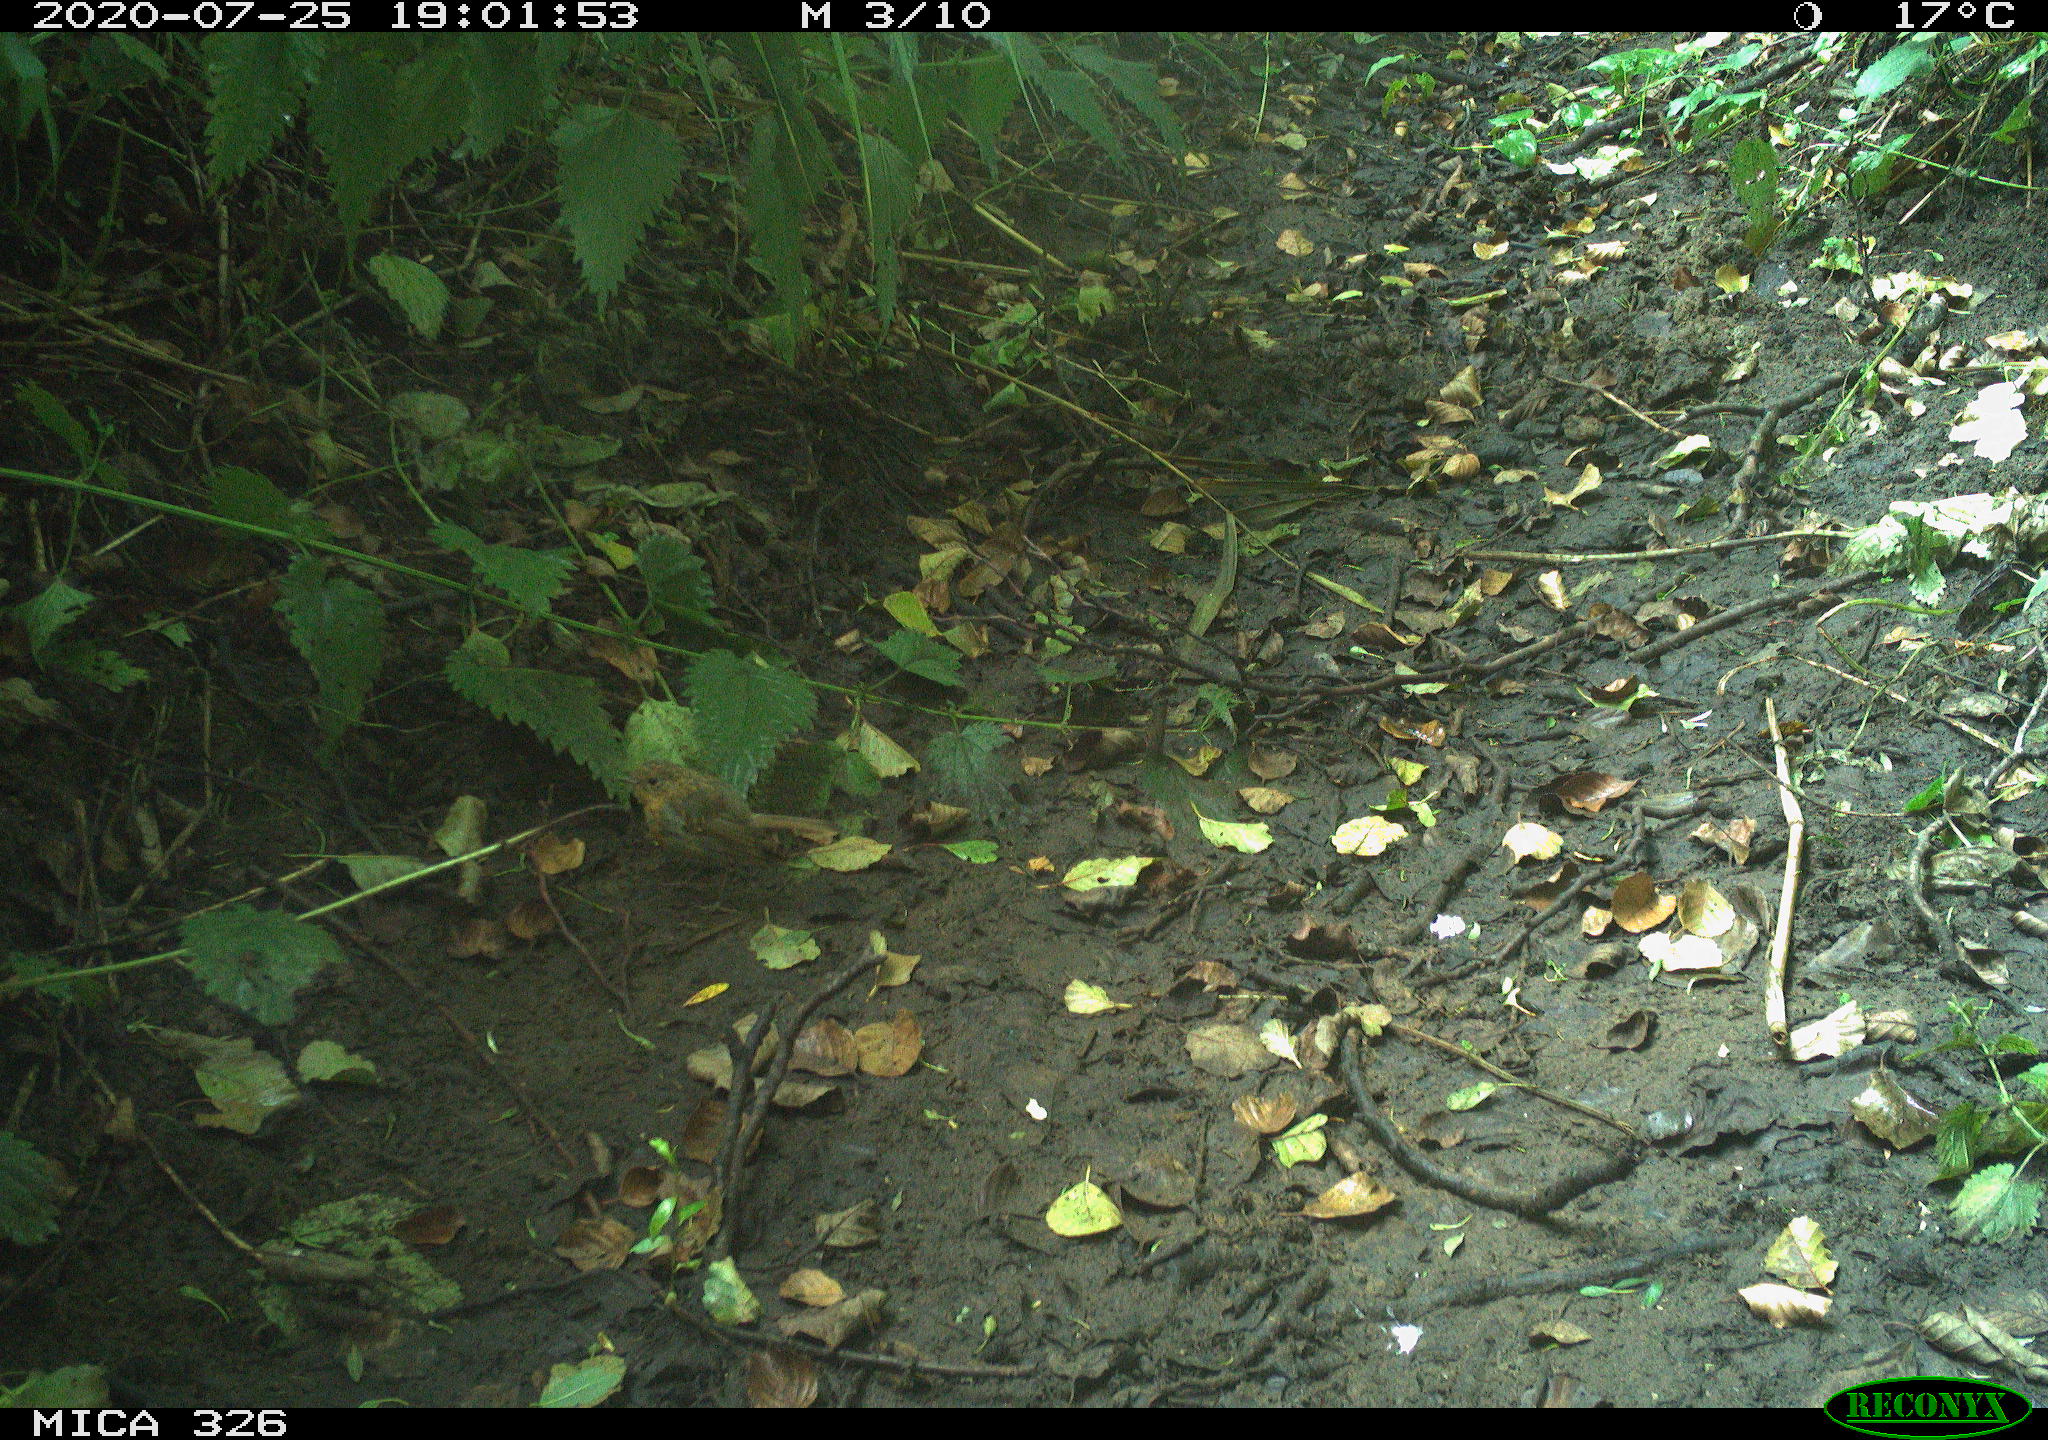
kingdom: Animalia
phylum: Chordata
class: Aves
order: Passeriformes
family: Muscicapidae
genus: Erithacus
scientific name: Erithacus rubecula
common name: European robin
